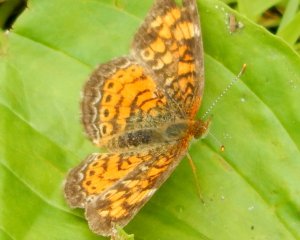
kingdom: Animalia
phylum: Arthropoda
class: Insecta
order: Lepidoptera
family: Nymphalidae
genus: Phyciodes
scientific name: Phyciodes tharos
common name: Pearl Crescent
